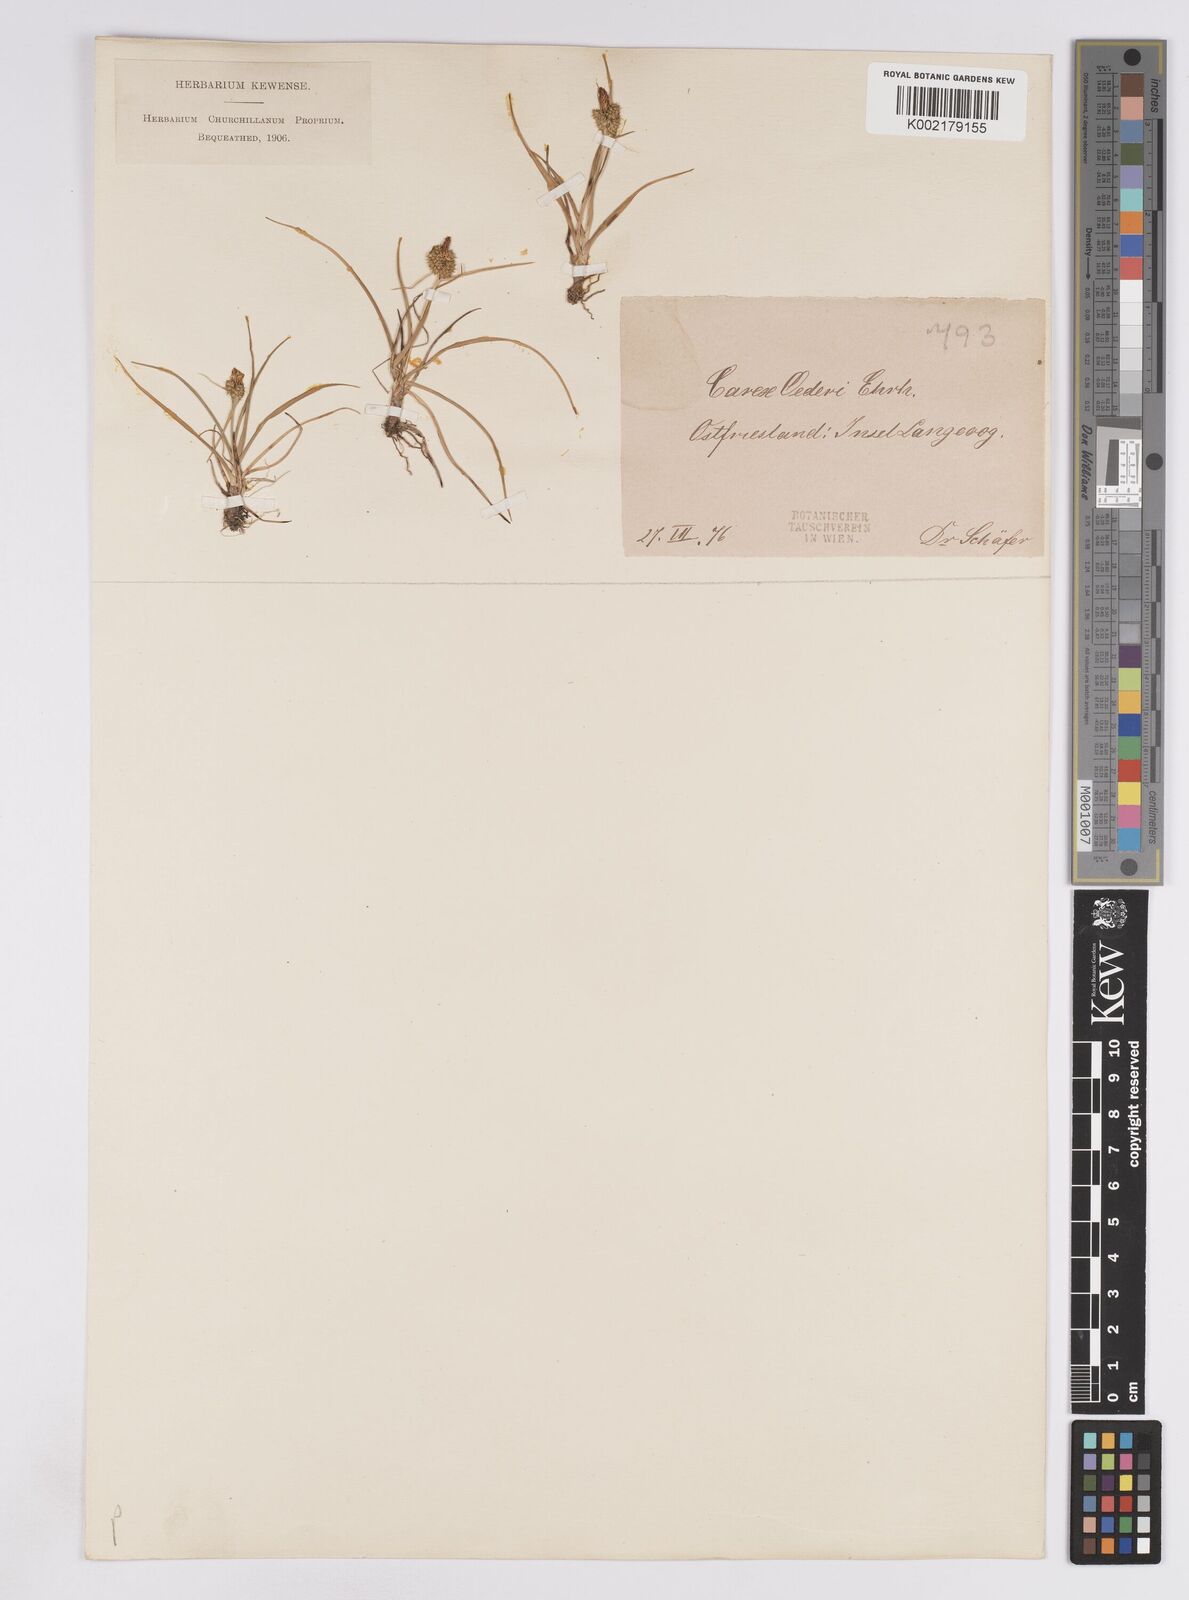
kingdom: Plantae
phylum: Tracheophyta
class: Liliopsida
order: Poales
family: Cyperaceae
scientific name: Cyperaceae
